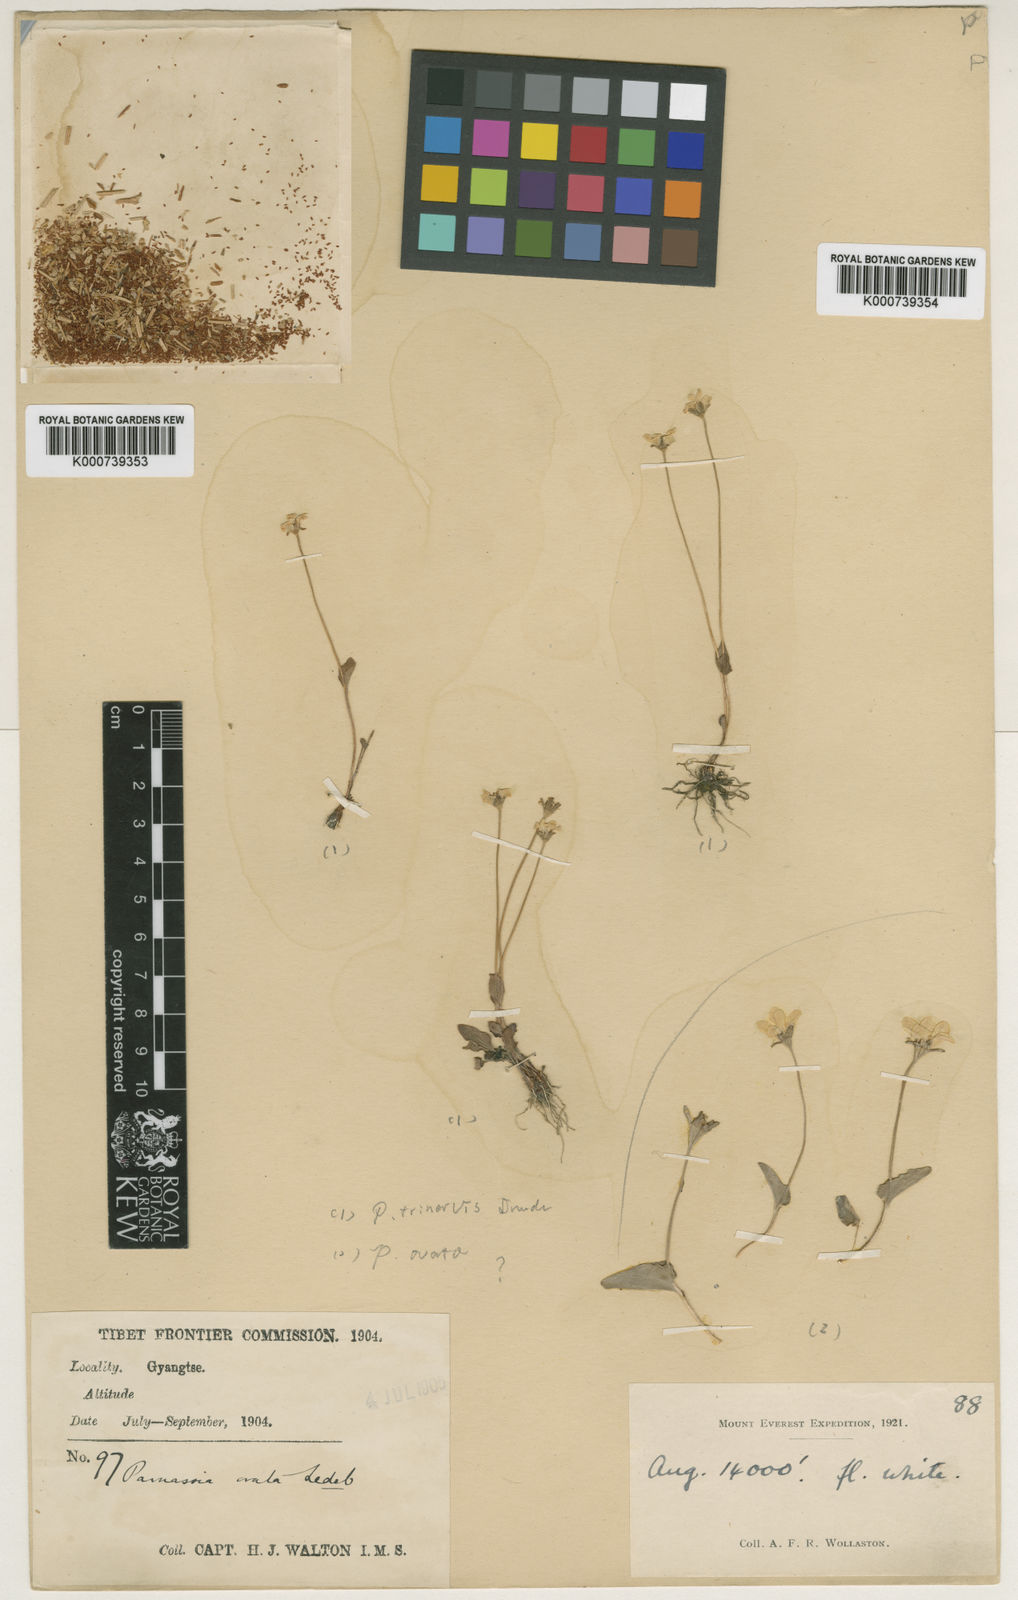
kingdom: Plantae
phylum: Tracheophyta
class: Magnoliopsida
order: Celastrales
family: Parnassiaceae
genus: Parnassia
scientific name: Parnassia trinervis
